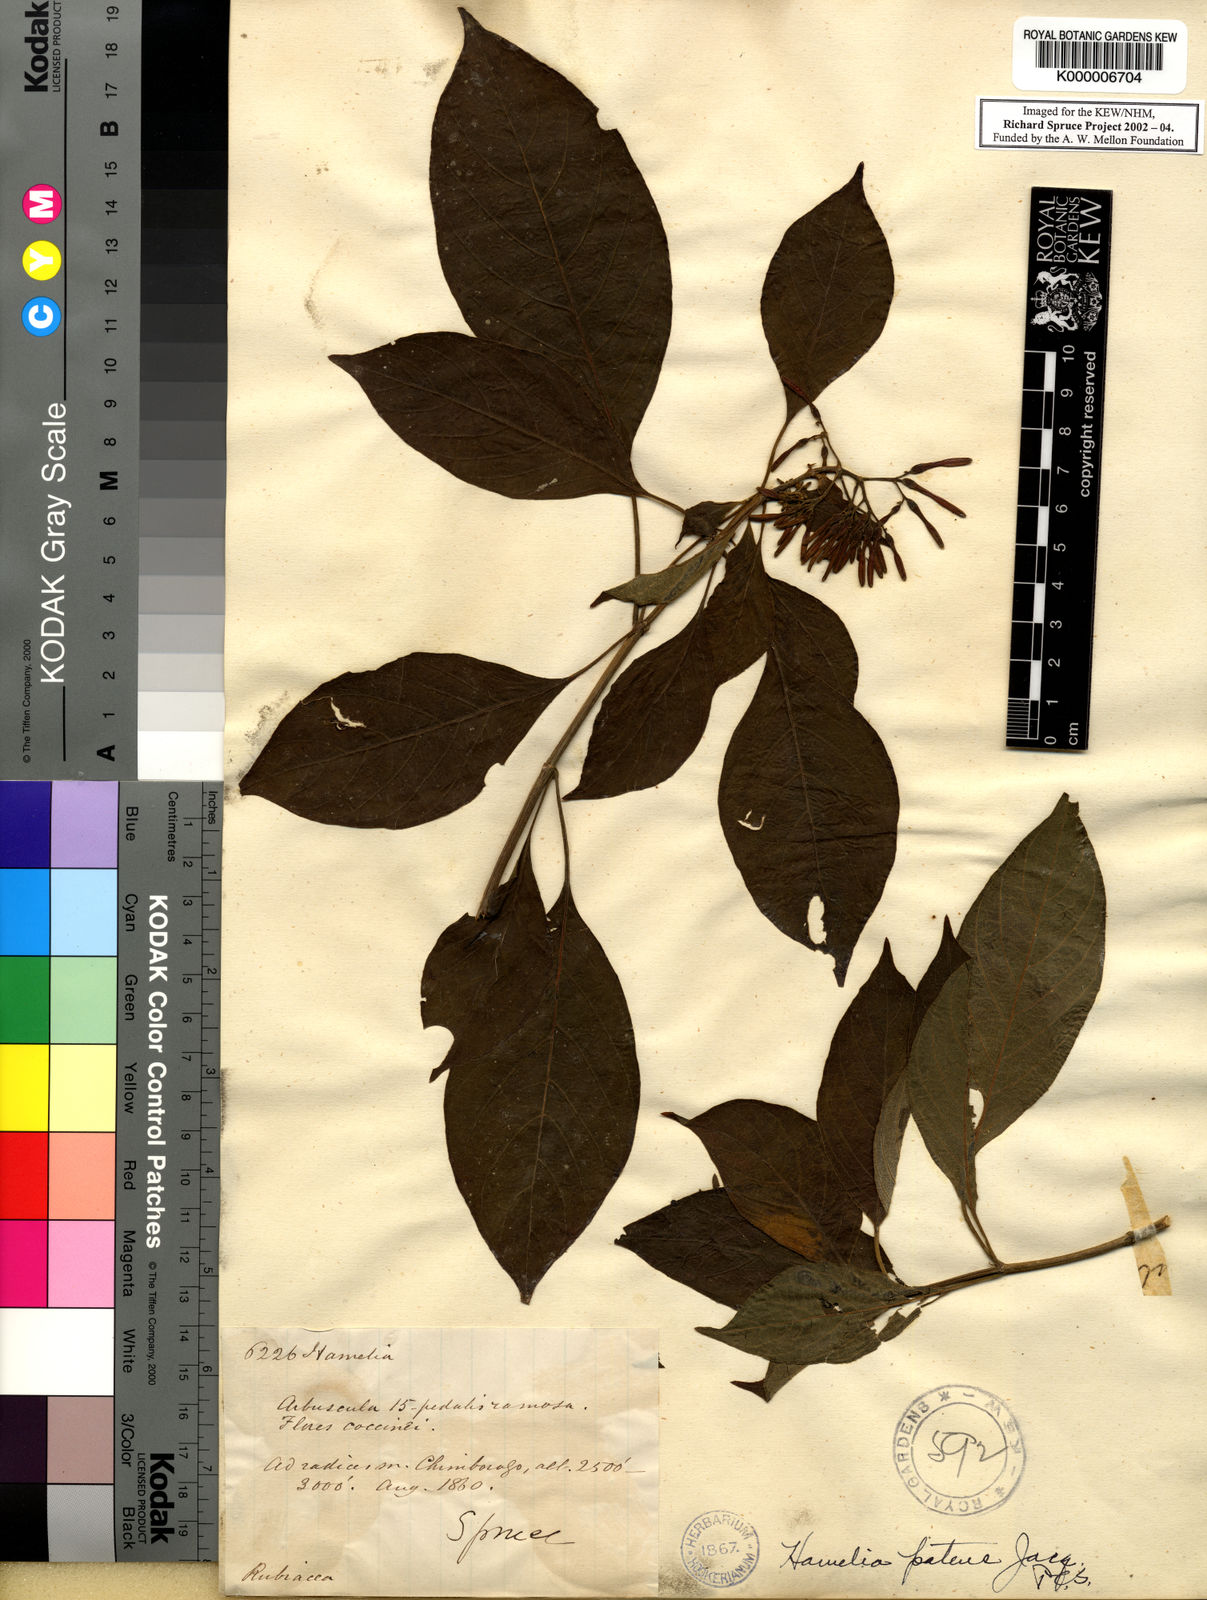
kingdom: Plantae
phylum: Tracheophyta
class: Magnoliopsida
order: Gentianales
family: Rubiaceae
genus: Hamelia
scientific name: Hamelia patens
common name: Redhead
